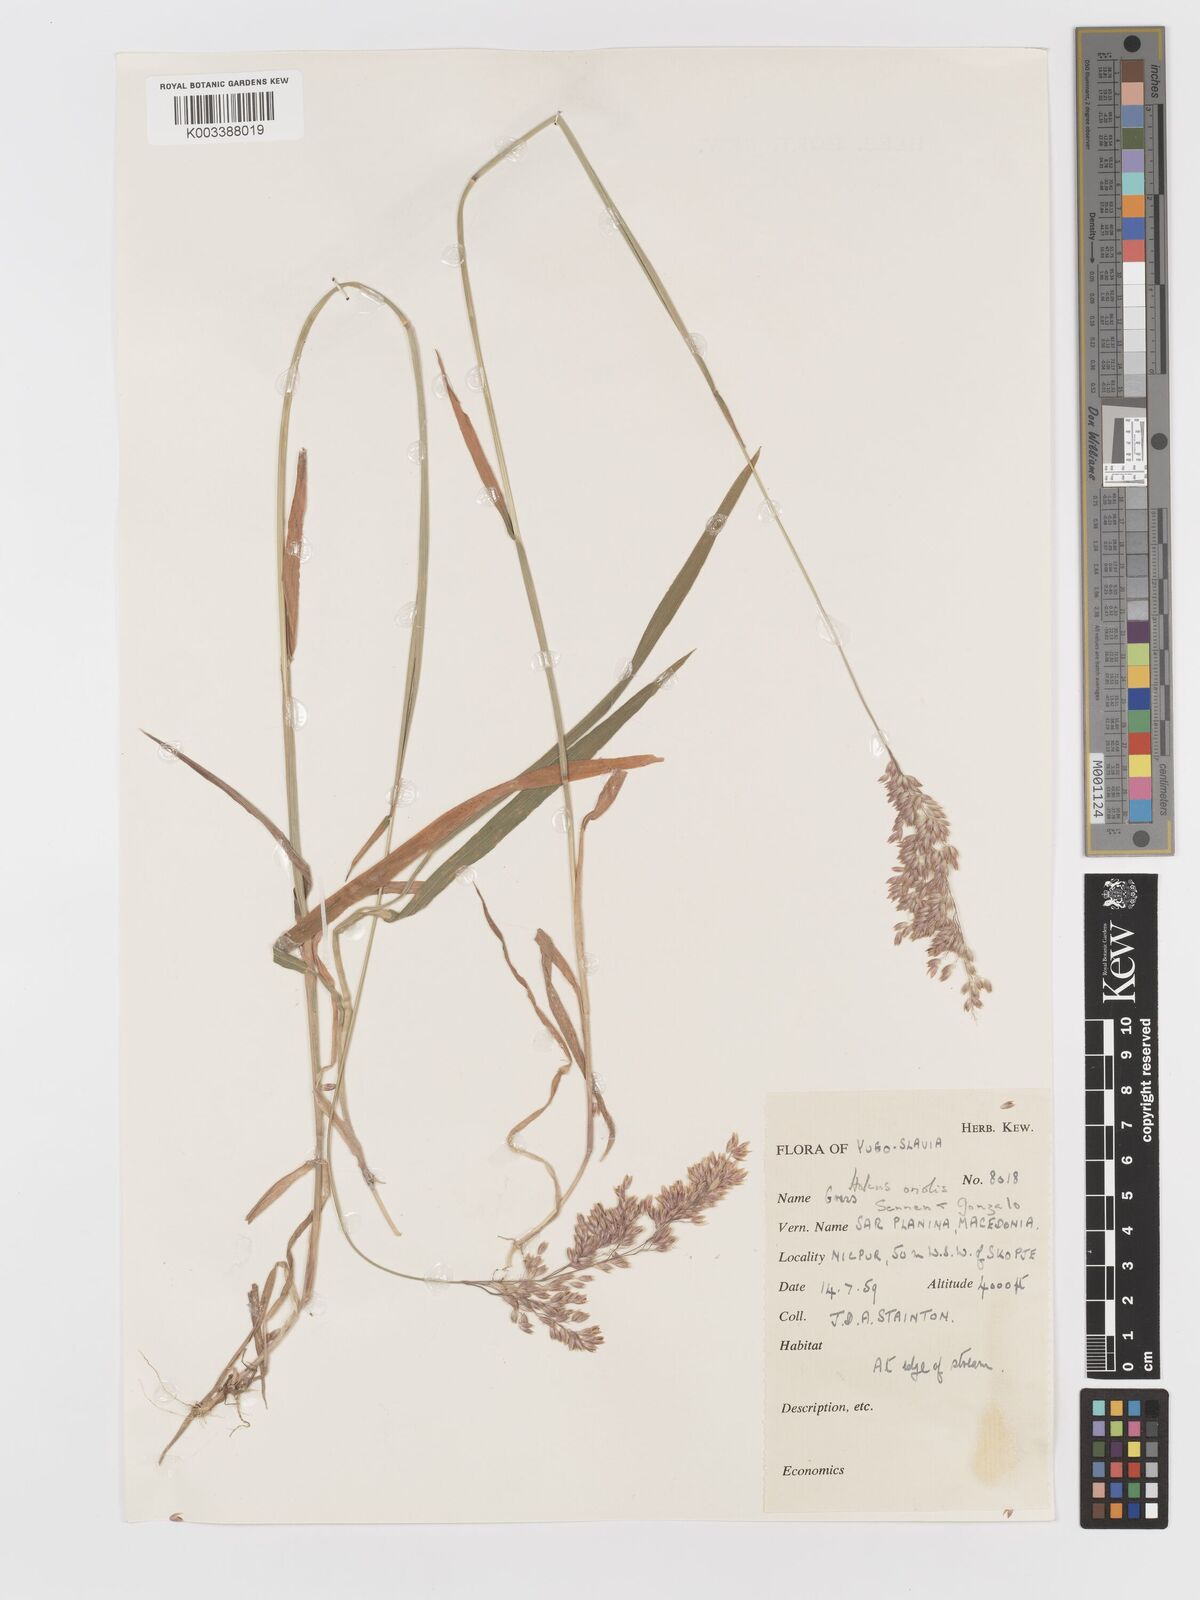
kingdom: Plantae
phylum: Tracheophyta
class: Liliopsida
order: Poales
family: Poaceae
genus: Holcus
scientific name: Holcus lanatus
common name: Yorkshire-fog
